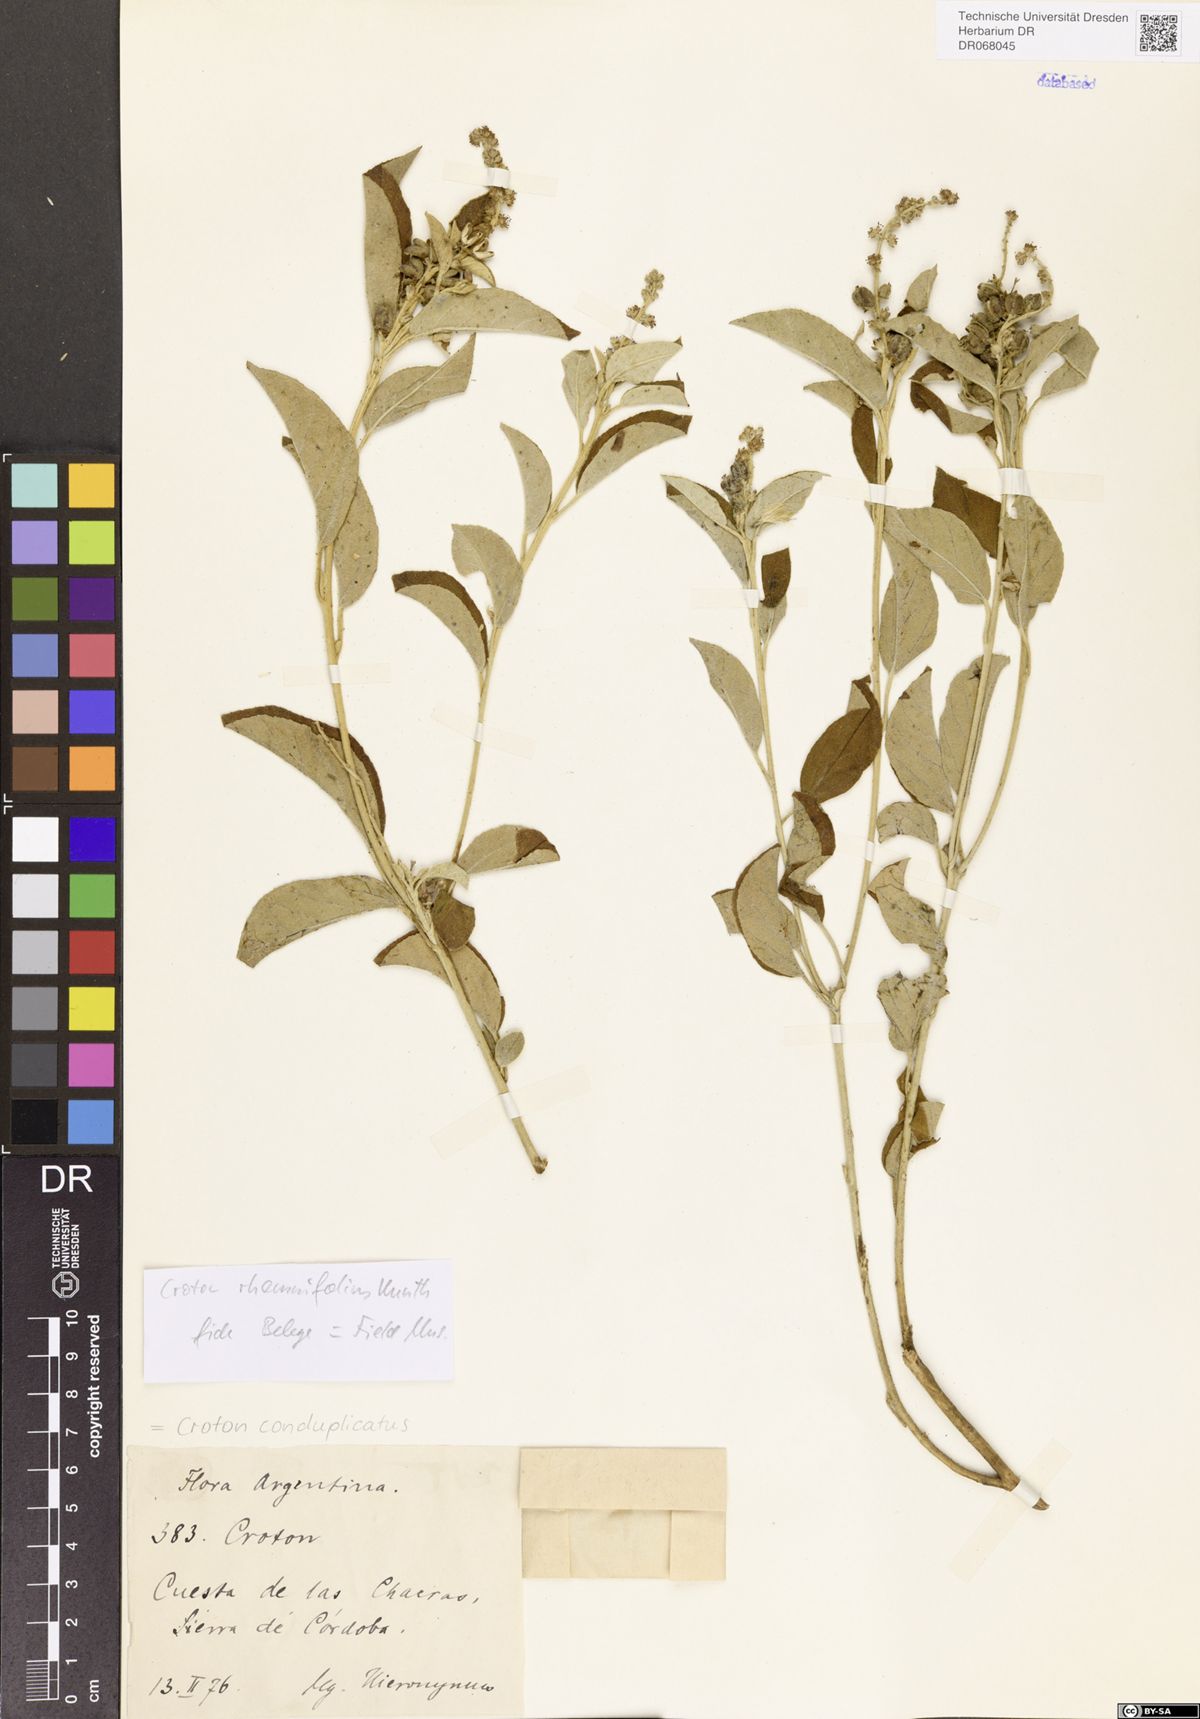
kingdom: Plantae
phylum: Tracheophyta
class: Magnoliopsida
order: Malpighiales
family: Euphorbiaceae
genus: Croton
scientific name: Croton conduplicatus
